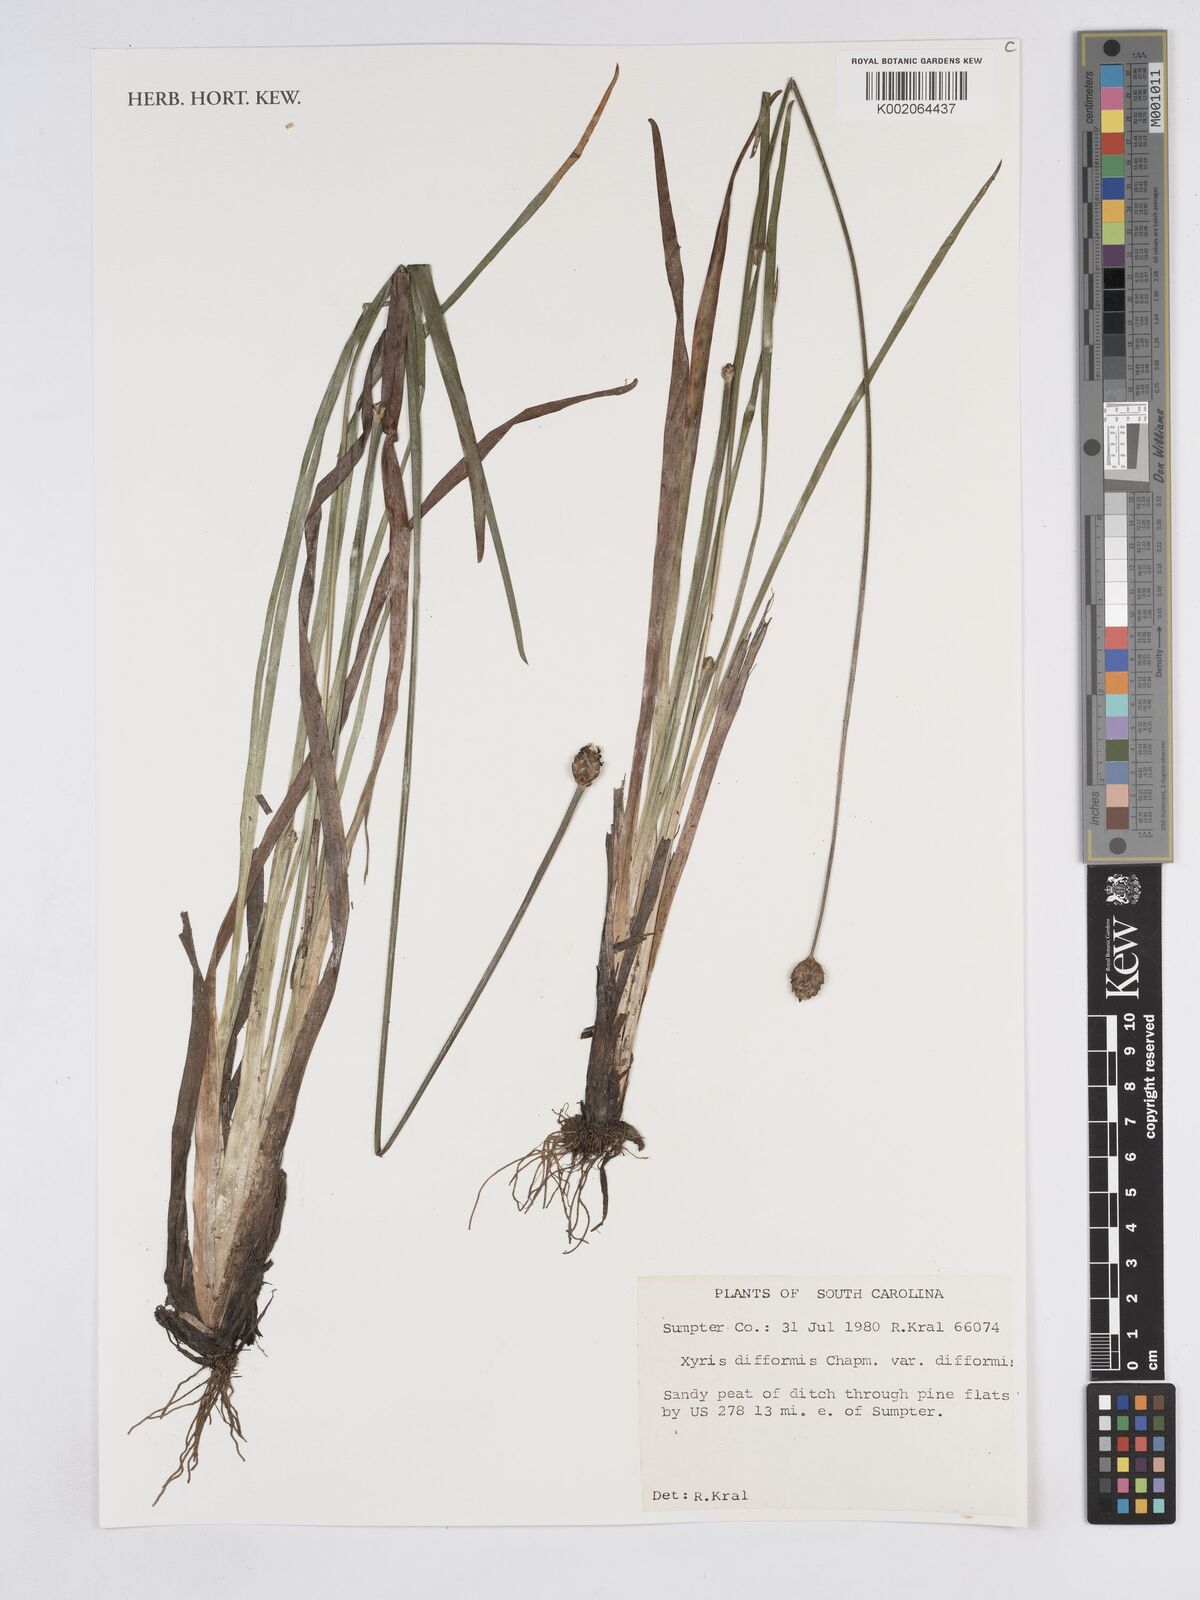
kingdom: Plantae
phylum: Tracheophyta
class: Liliopsida
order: Poales
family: Xyridaceae
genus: Xyris
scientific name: Xyris difformis
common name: Bog yellow-eyed-grass
